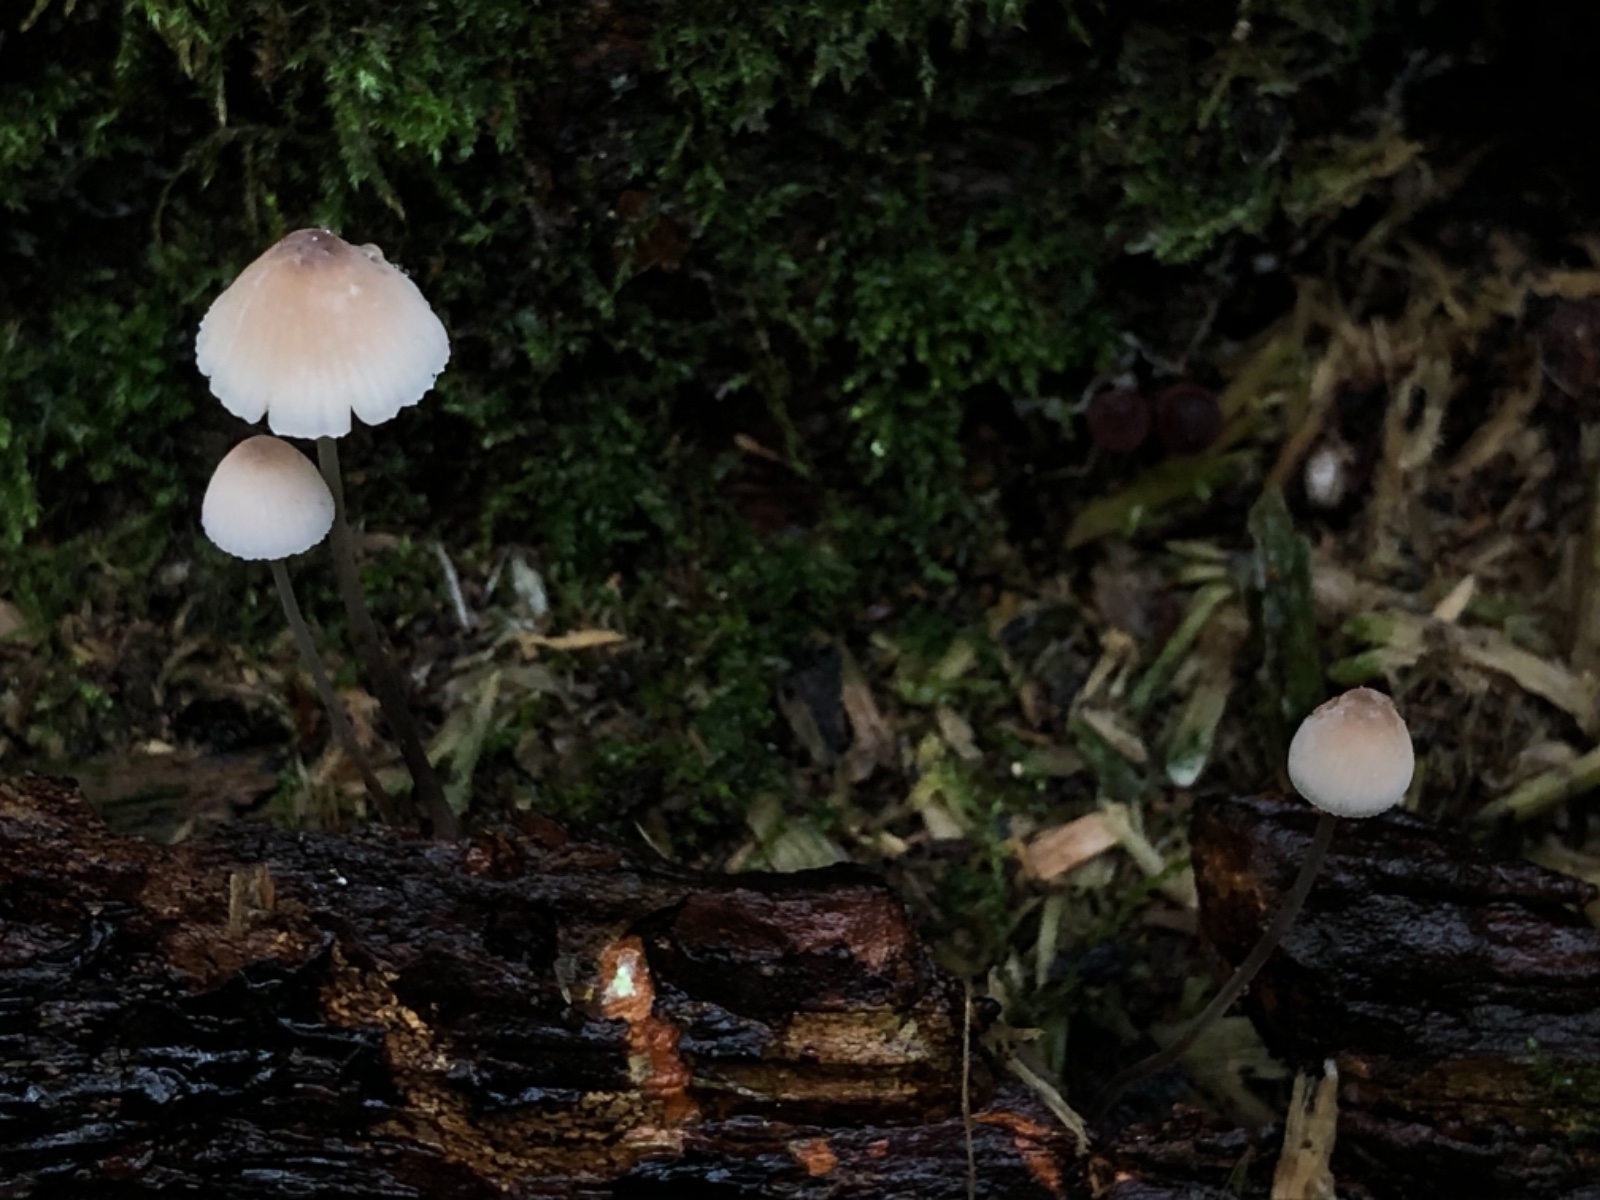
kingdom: Fungi
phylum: Basidiomycota
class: Agaricomycetes
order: Agaricales
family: Mycenaceae
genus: Mycena
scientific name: Mycena filopes
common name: jod-huesvamp
